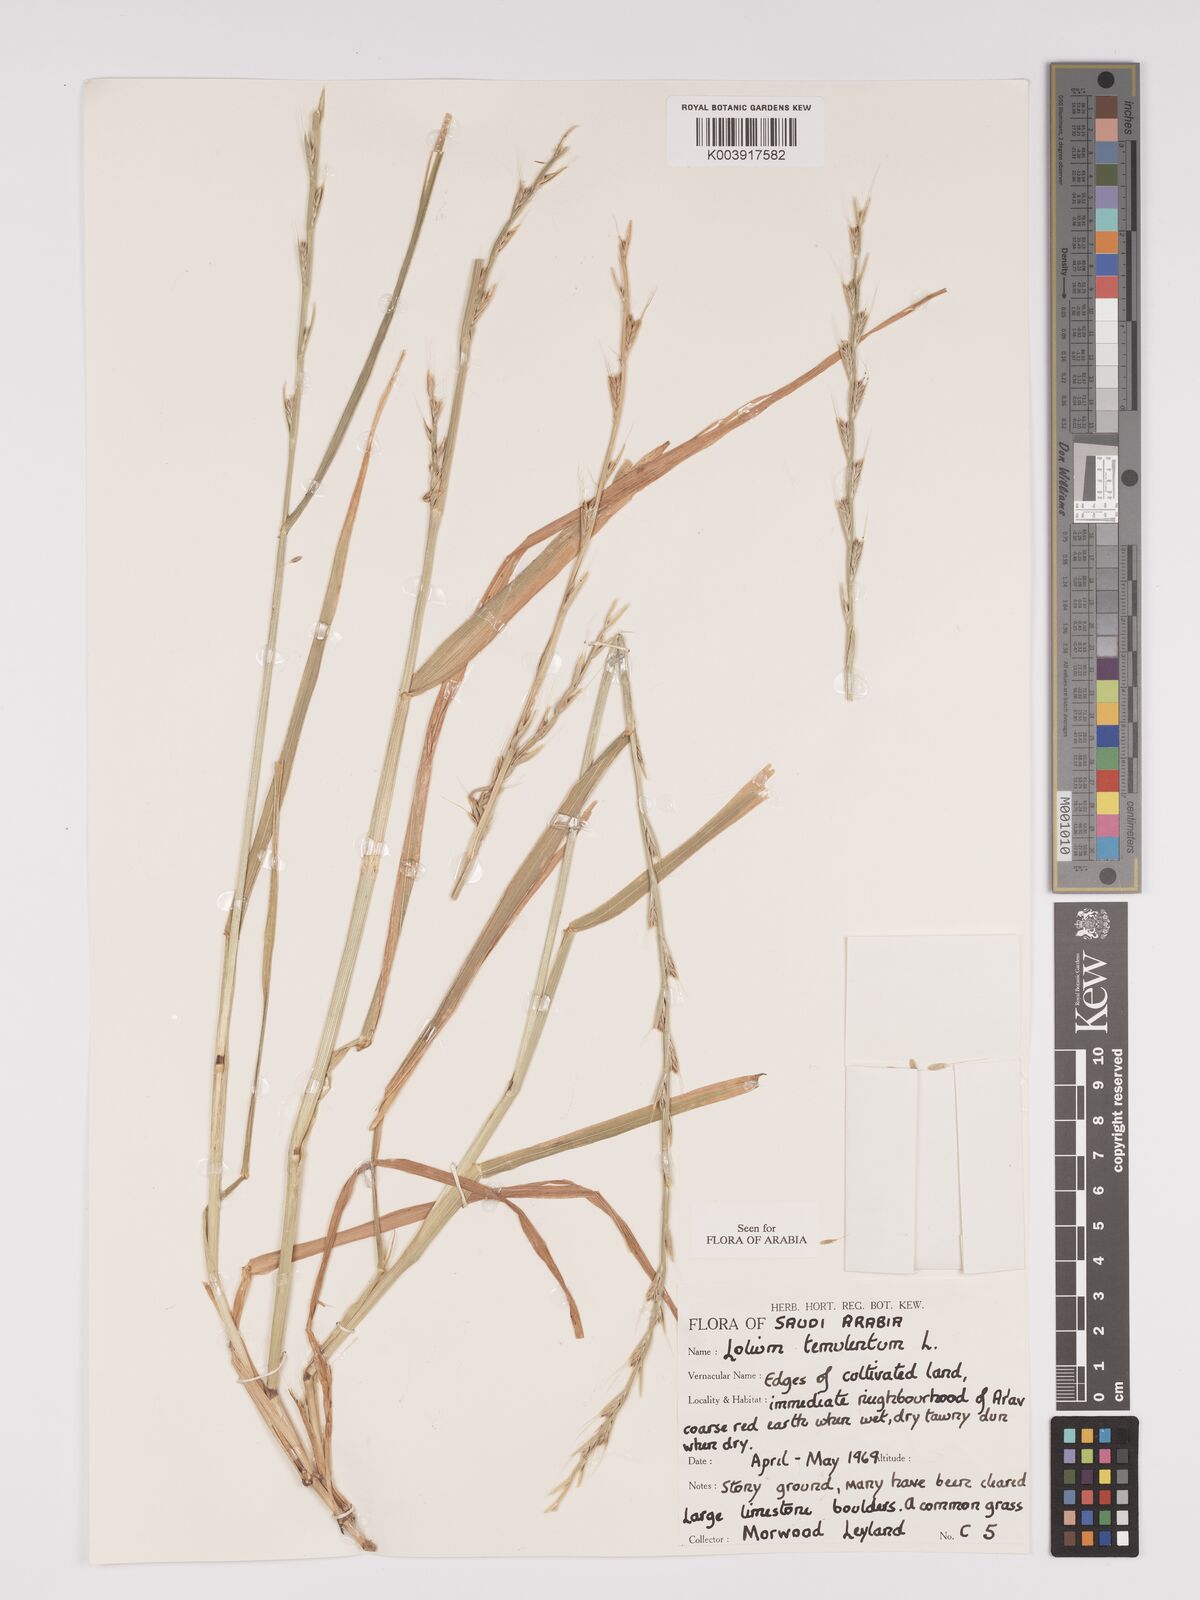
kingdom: Plantae
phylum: Tracheophyta
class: Liliopsida
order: Poales
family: Poaceae
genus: Lolium
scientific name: Lolium temulentum
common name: Darnel
